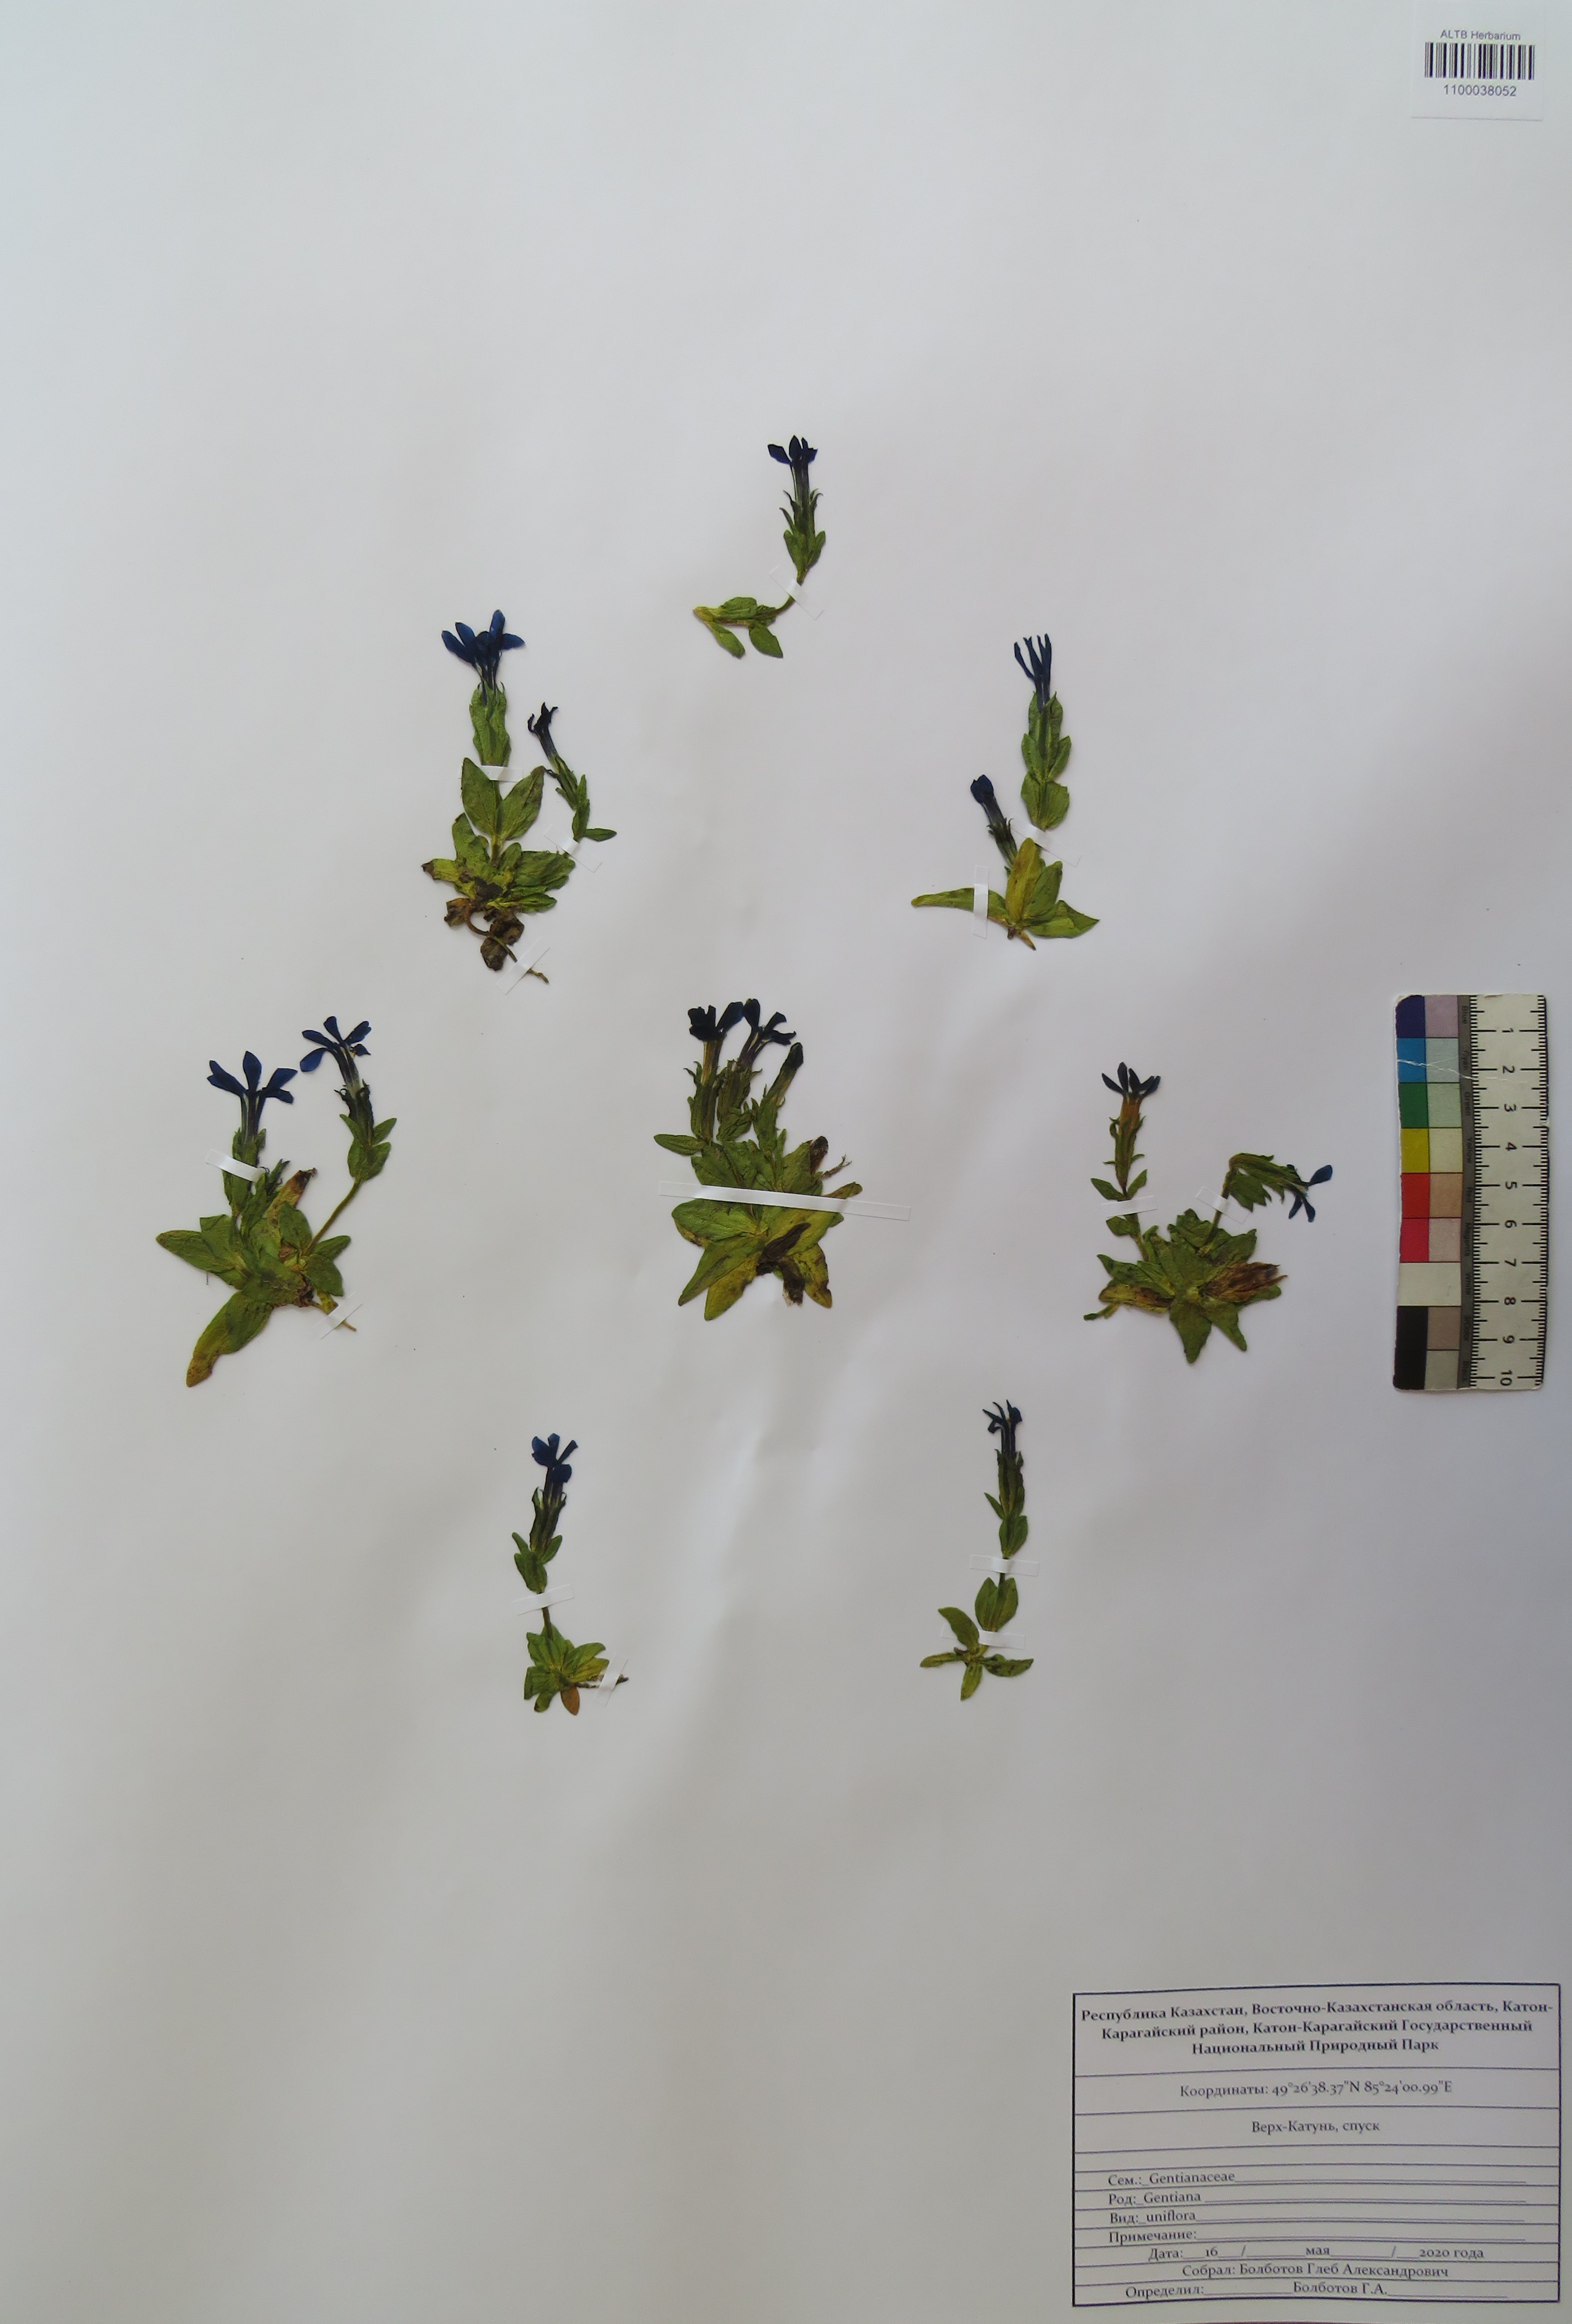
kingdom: Plantae
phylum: Tracheophyta
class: Magnoliopsida
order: Gentianales
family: Gentianaceae
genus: Gentiana
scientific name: Gentiana uniflora
